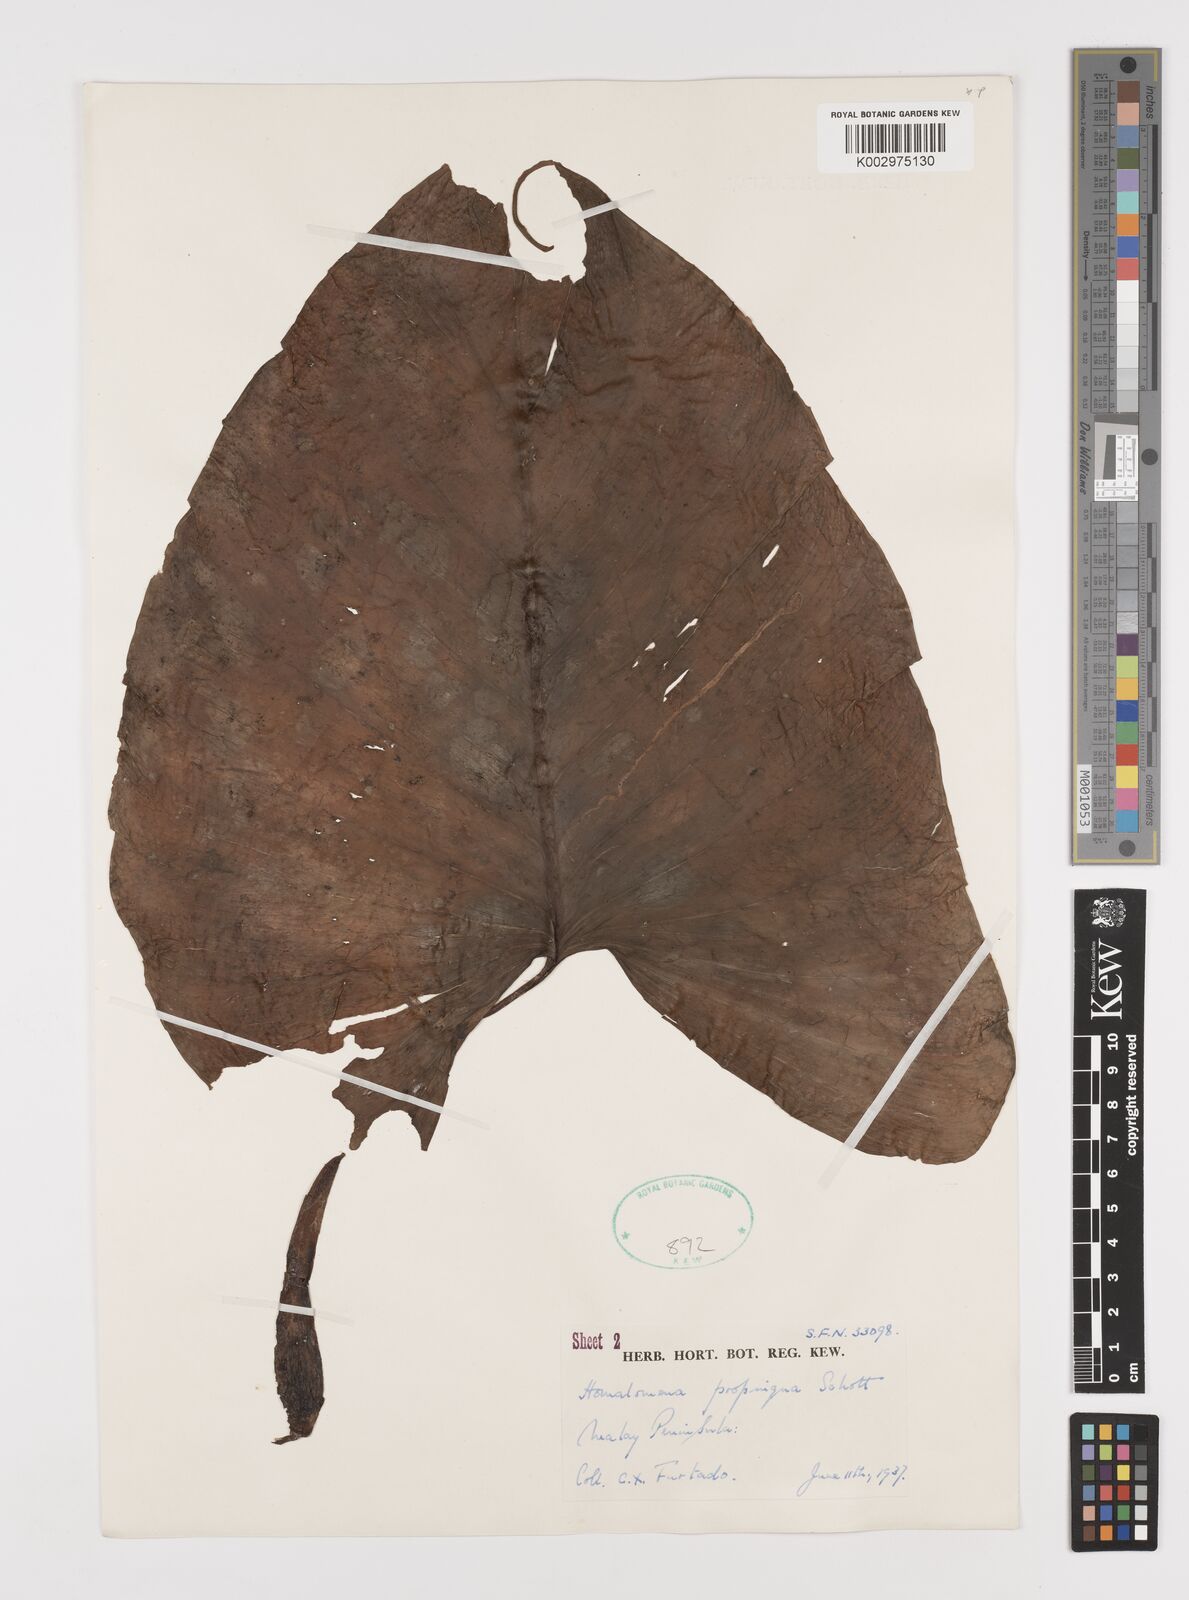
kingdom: Plantae
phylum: Tracheophyta
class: Liliopsida
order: Alismatales
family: Araceae
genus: Homalomena
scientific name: Homalomena humilis
